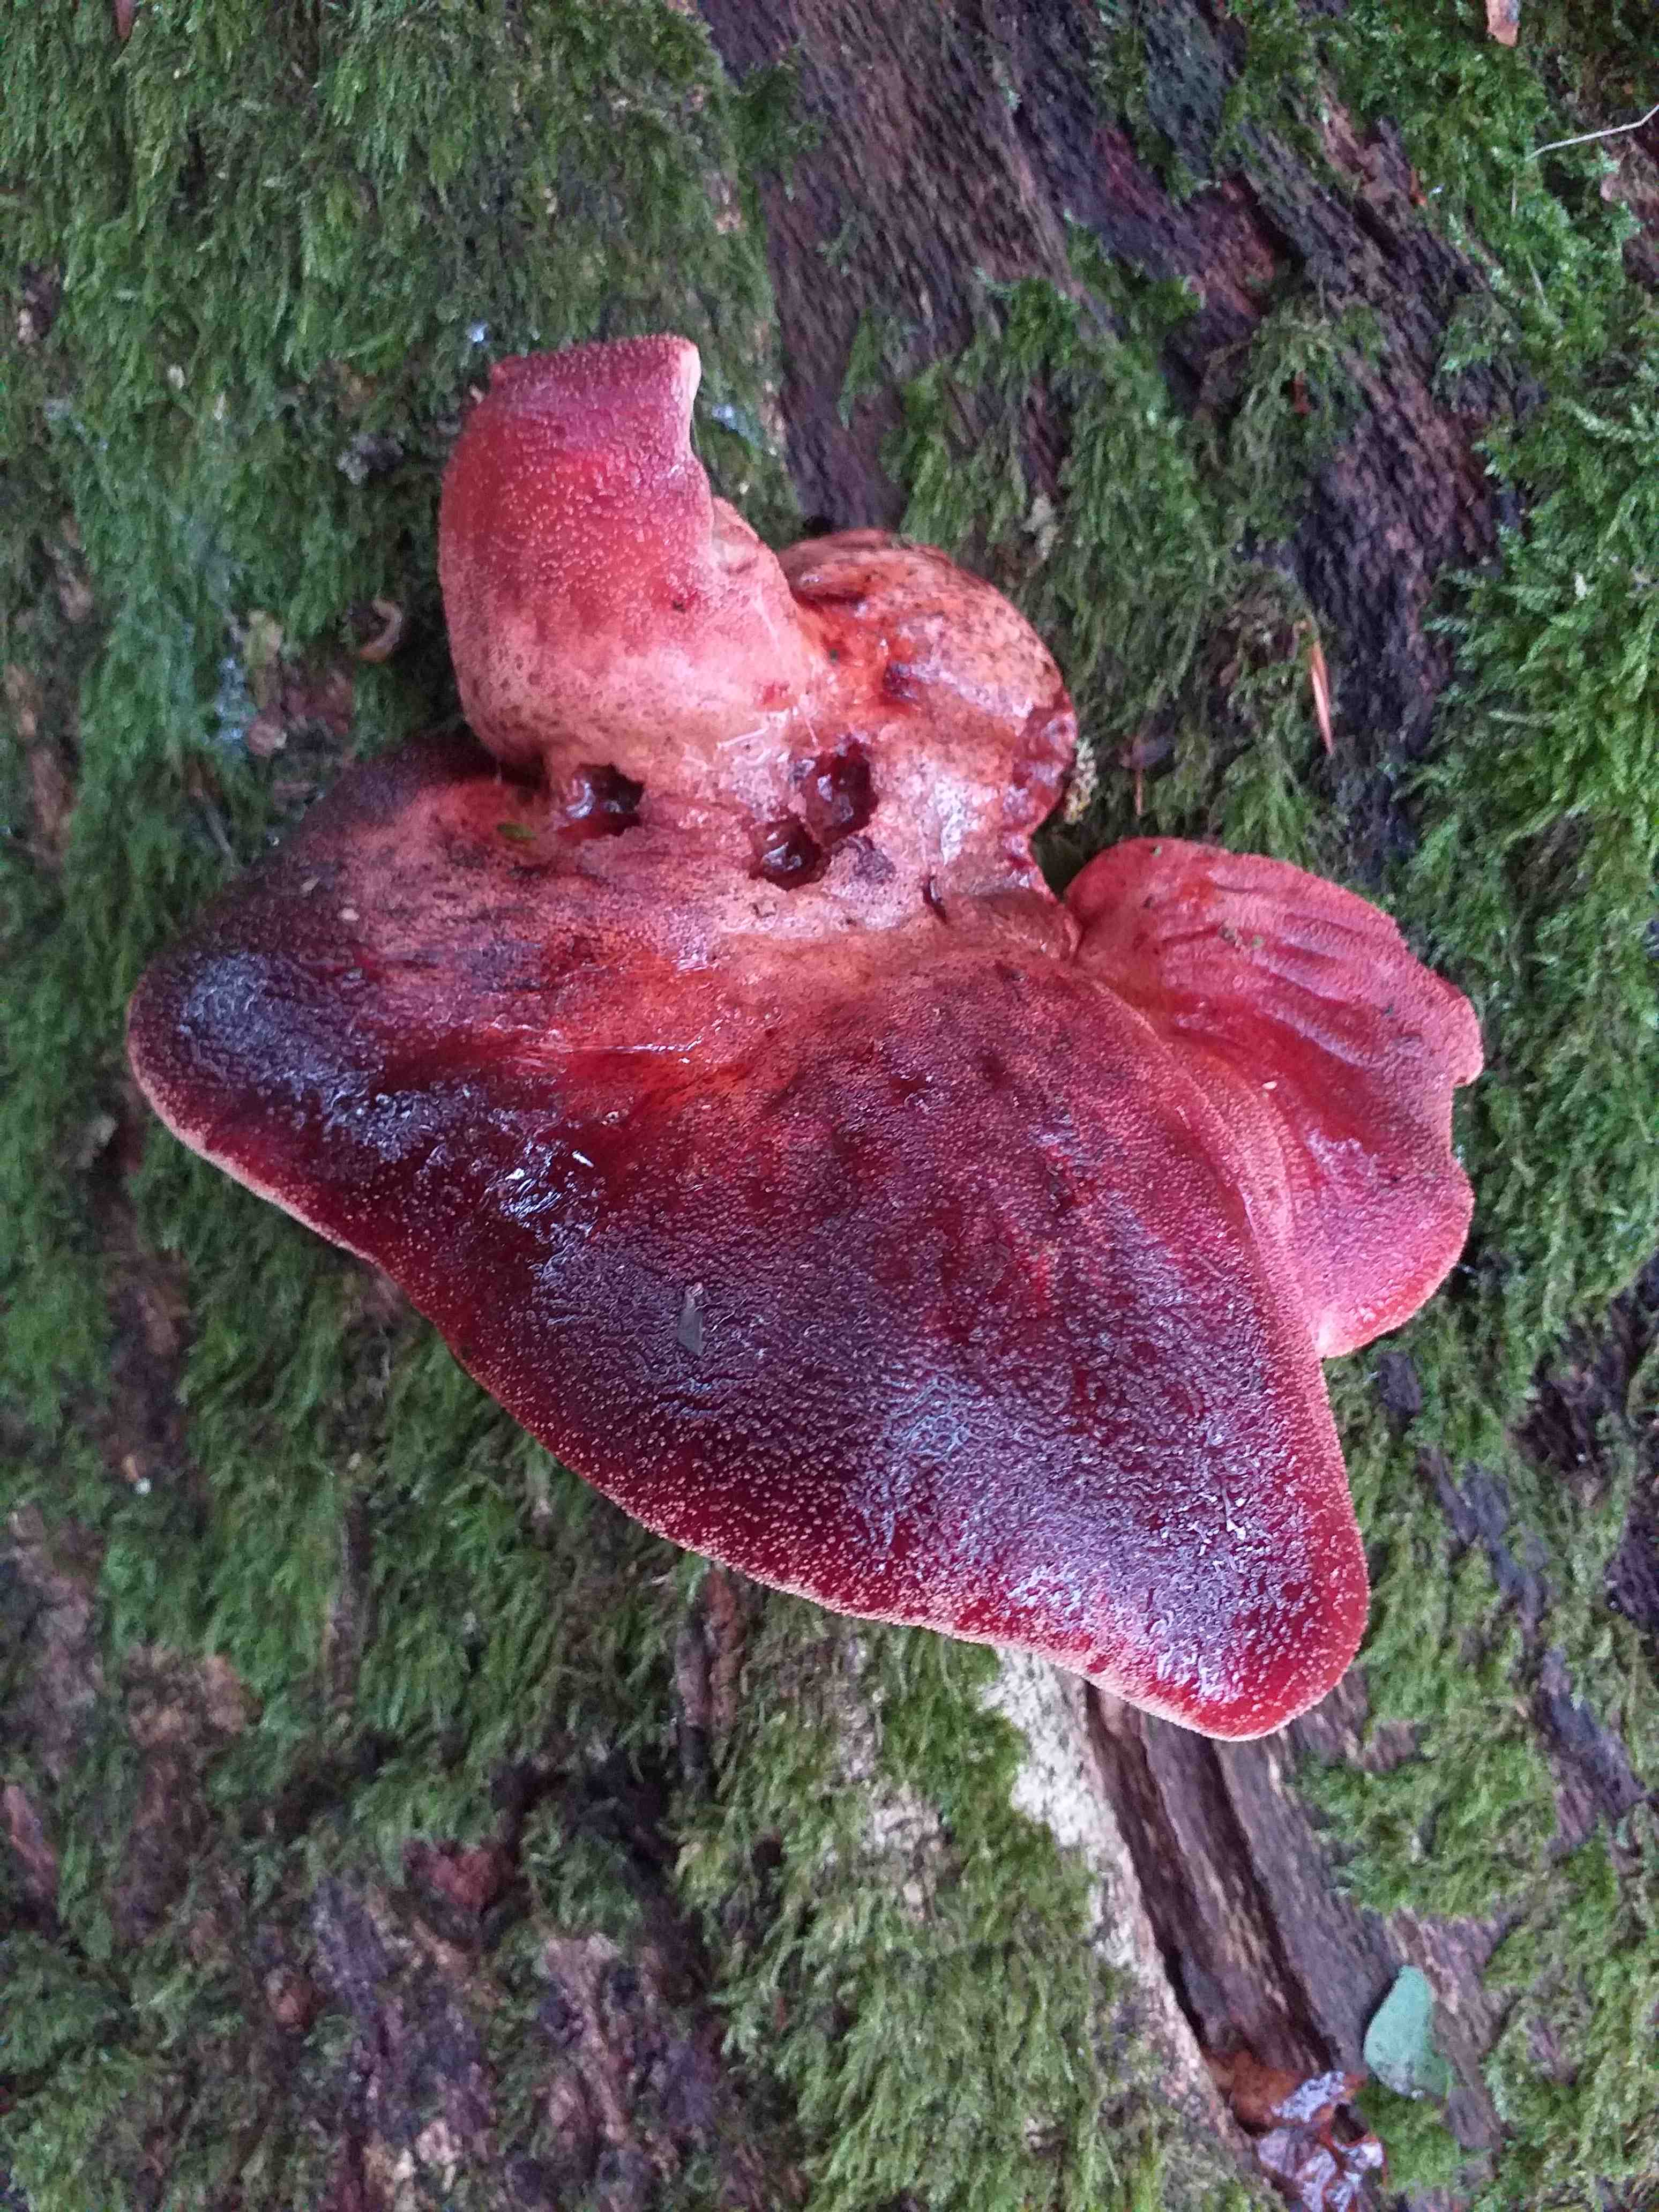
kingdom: Fungi
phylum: Basidiomycota
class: Agaricomycetes
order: Agaricales
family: Fistulinaceae
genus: Fistulina
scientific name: Fistulina hepatica
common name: oksetunge
